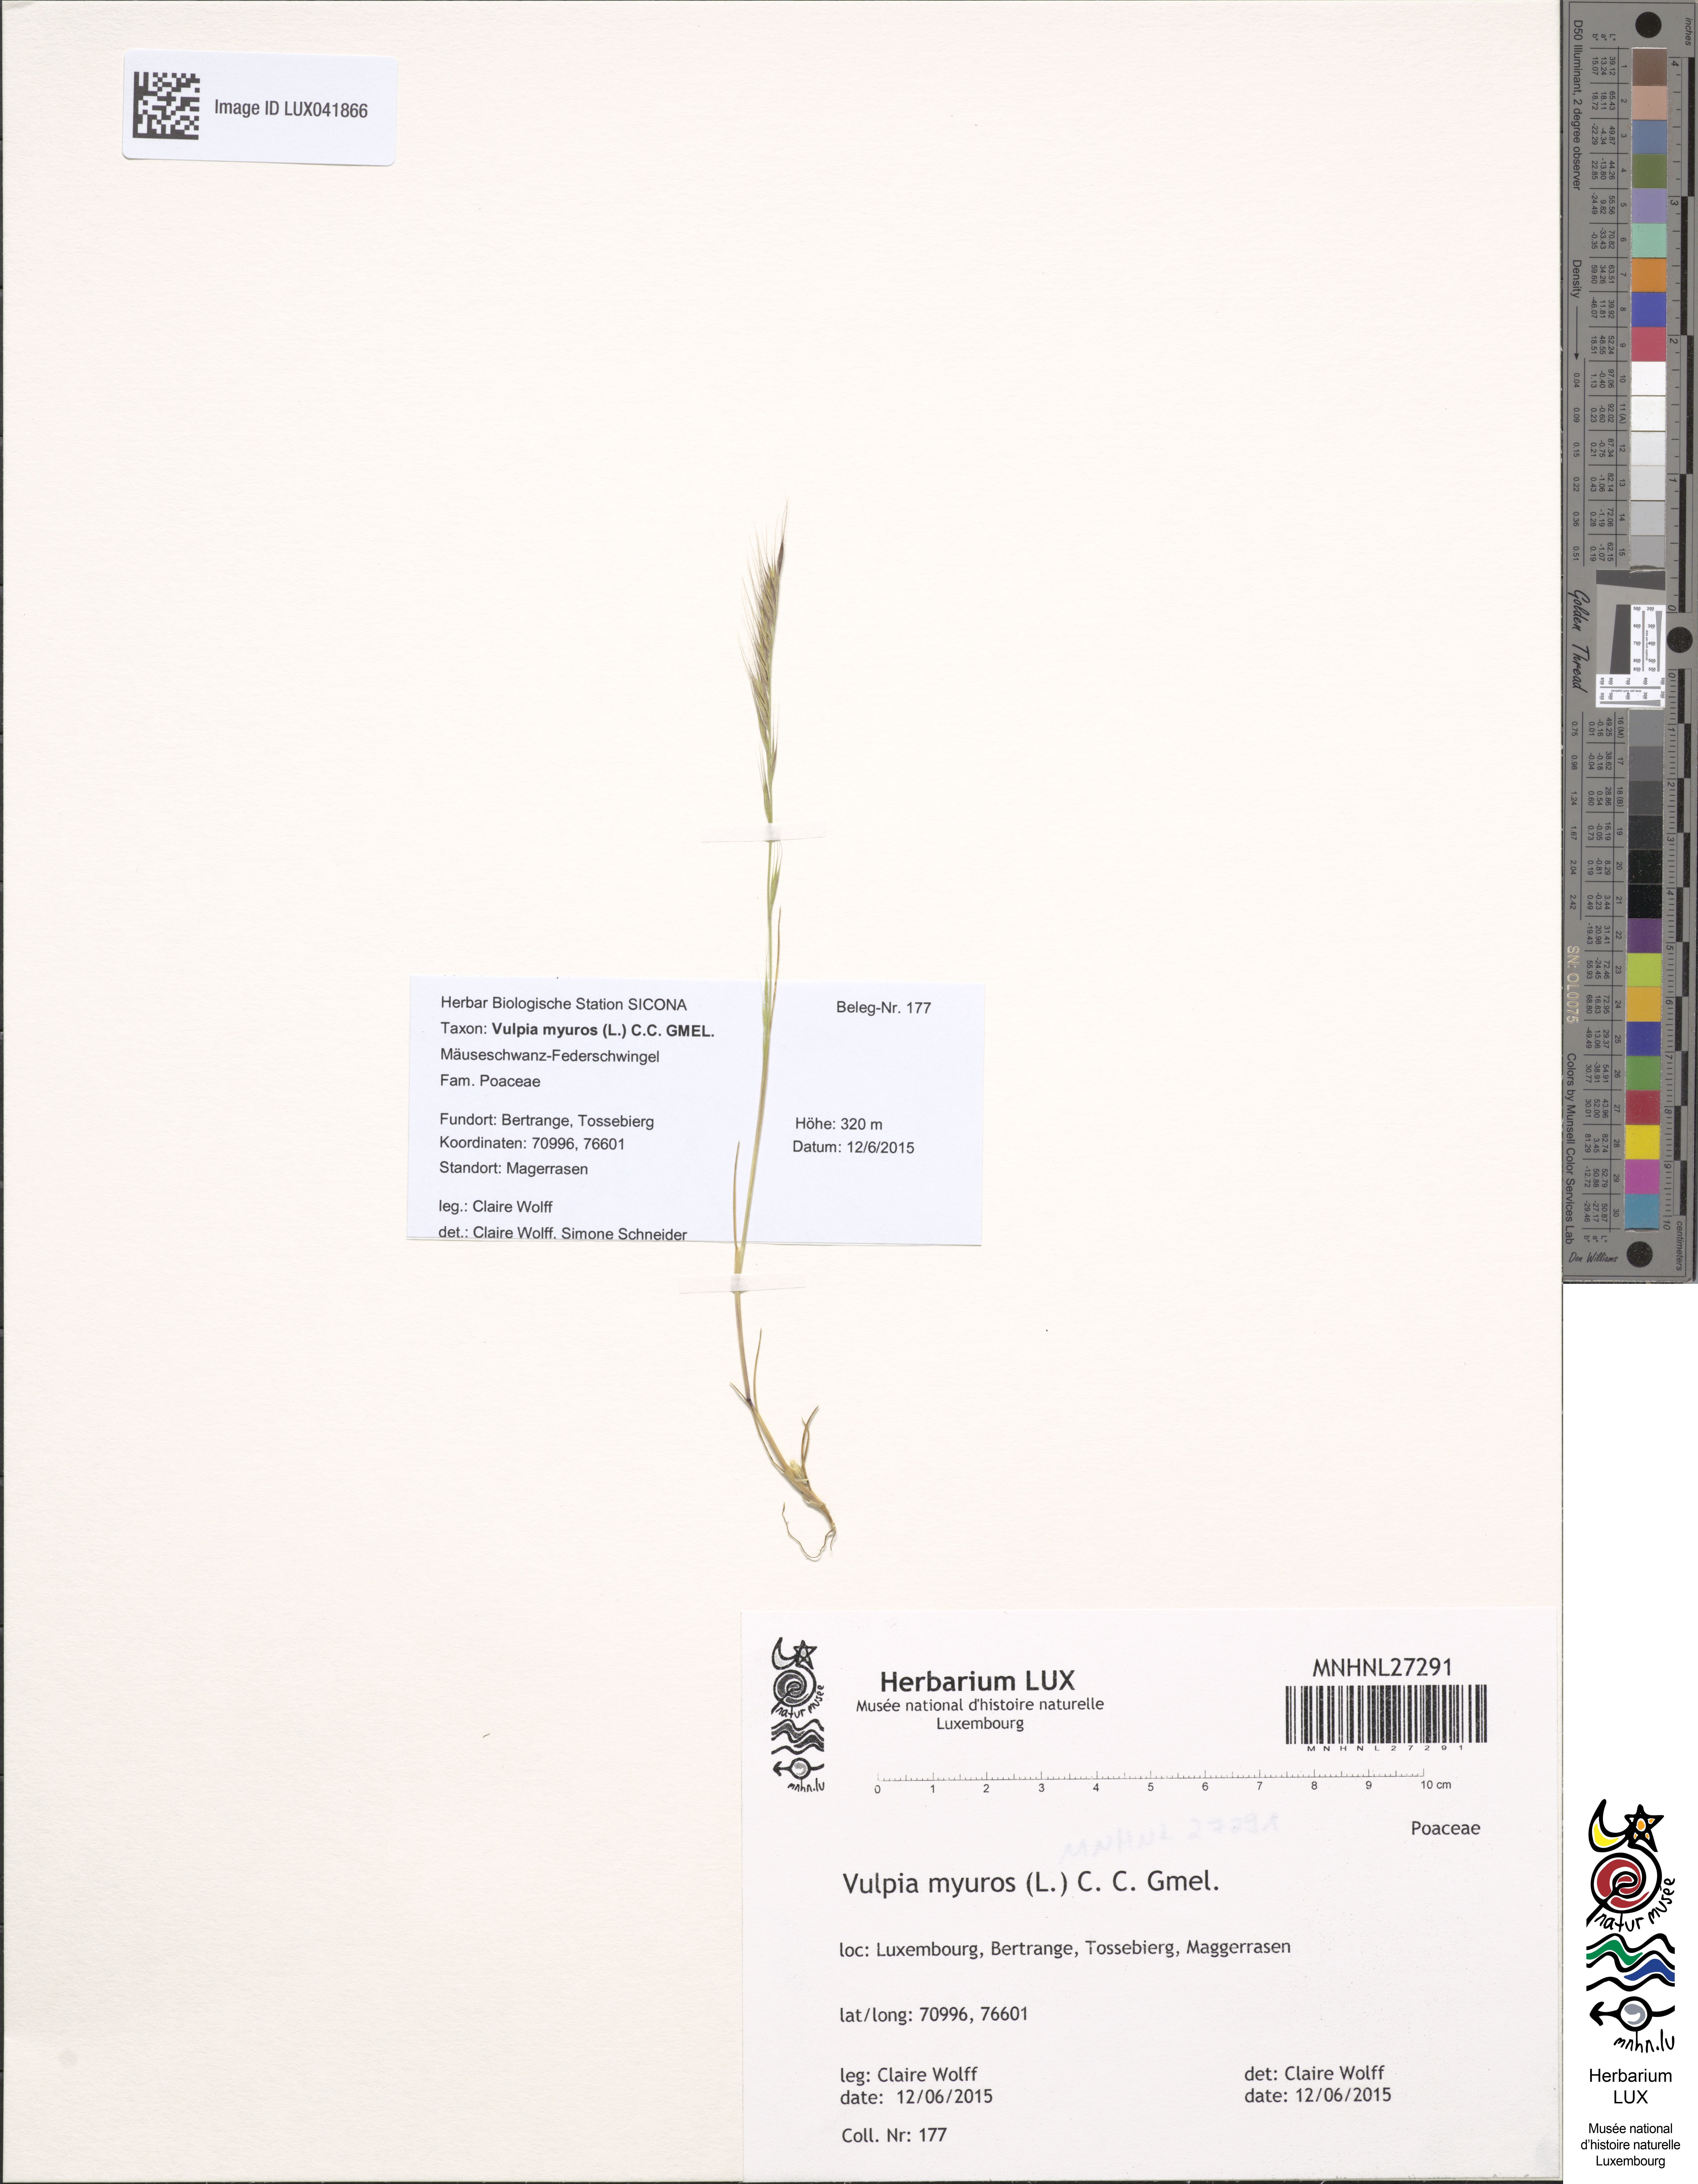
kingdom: Plantae
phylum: Tracheophyta
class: Liliopsida
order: Poales
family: Poaceae
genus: Festuca
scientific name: Festuca myuros
